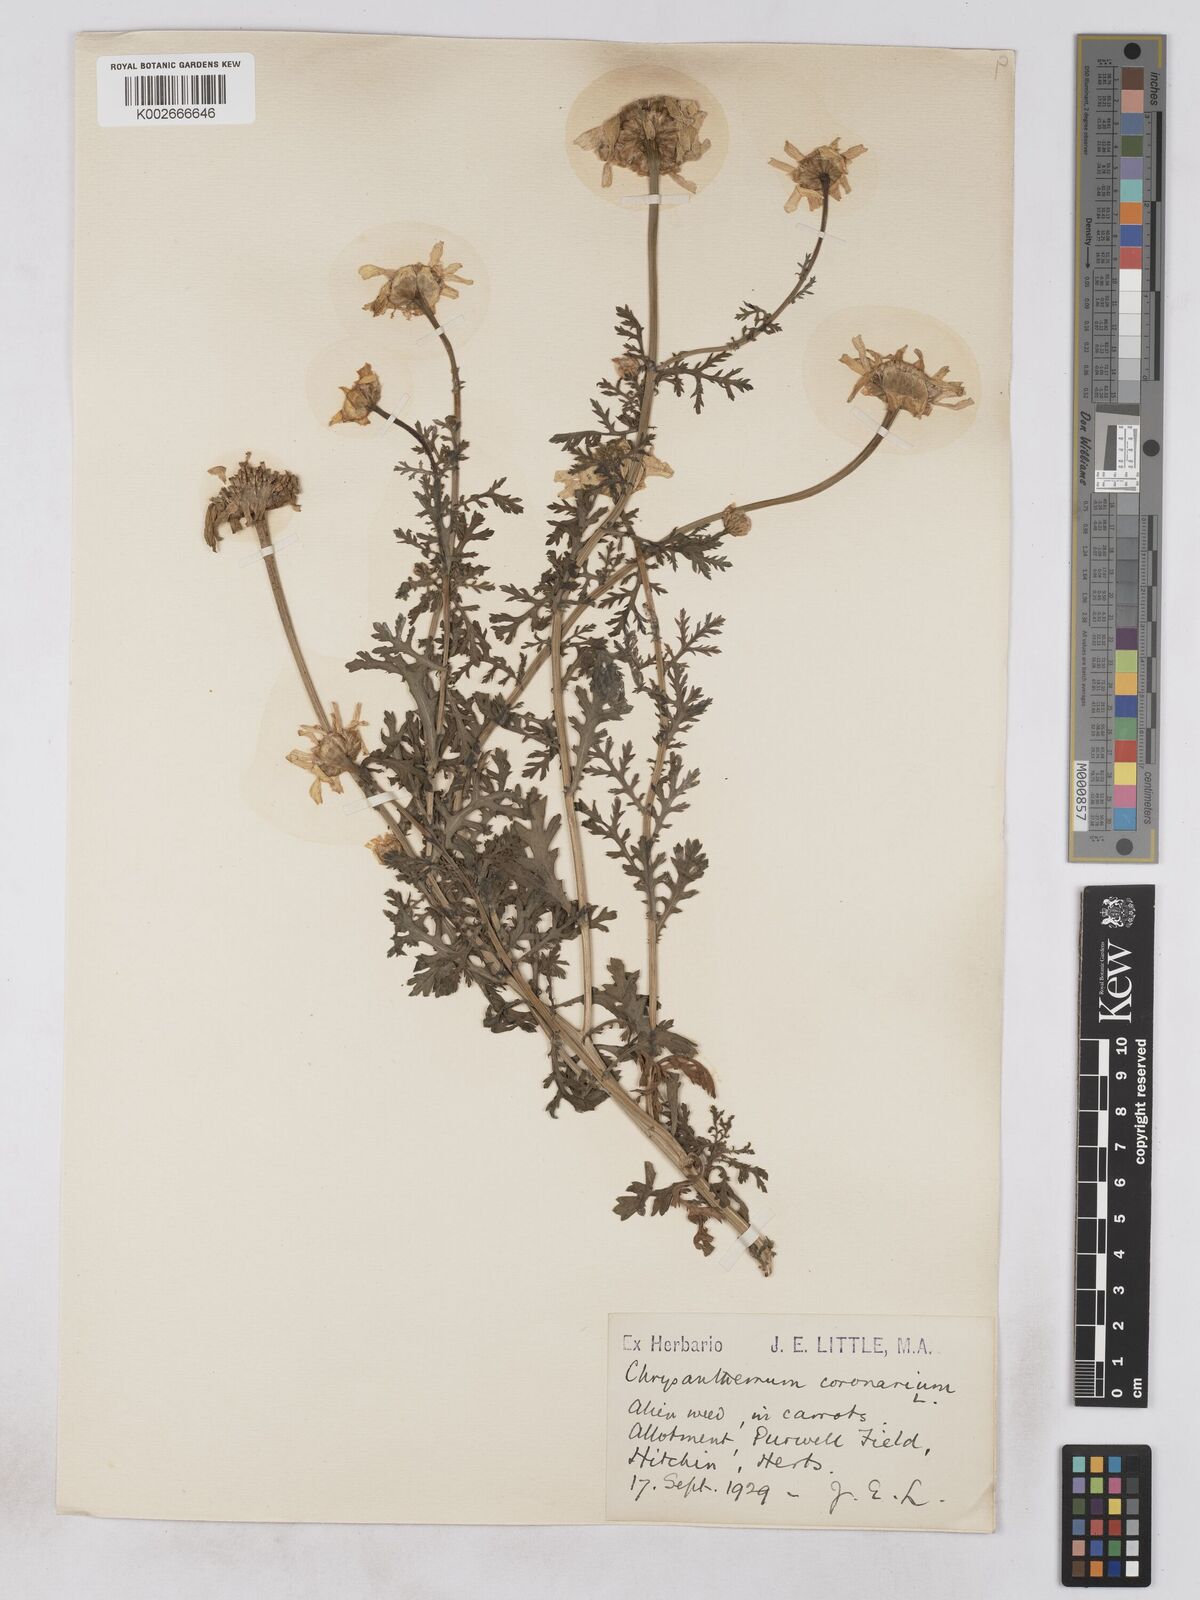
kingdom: Plantae
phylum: Tracheophyta
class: Magnoliopsida
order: Asterales
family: Asteraceae
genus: Glebionis
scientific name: Glebionis coronaria
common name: Crowndaisy
